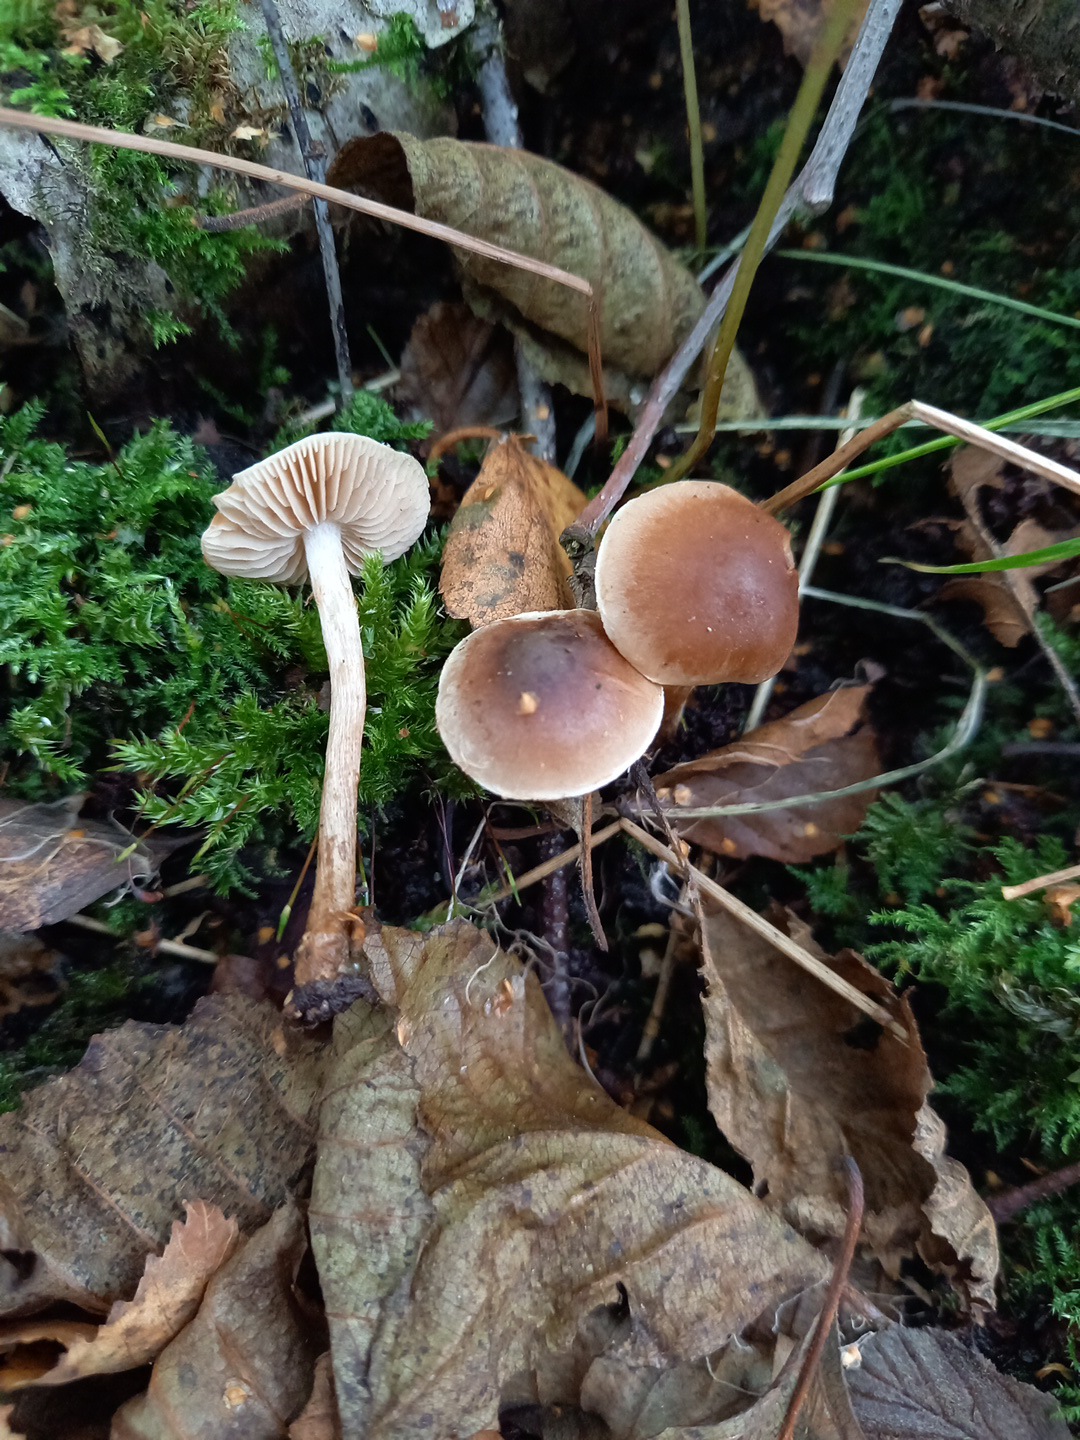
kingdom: Fungi
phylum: Basidiomycota
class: Agaricomycetes
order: Agaricales
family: Hymenogastraceae
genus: Hebeloma
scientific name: Hebeloma
